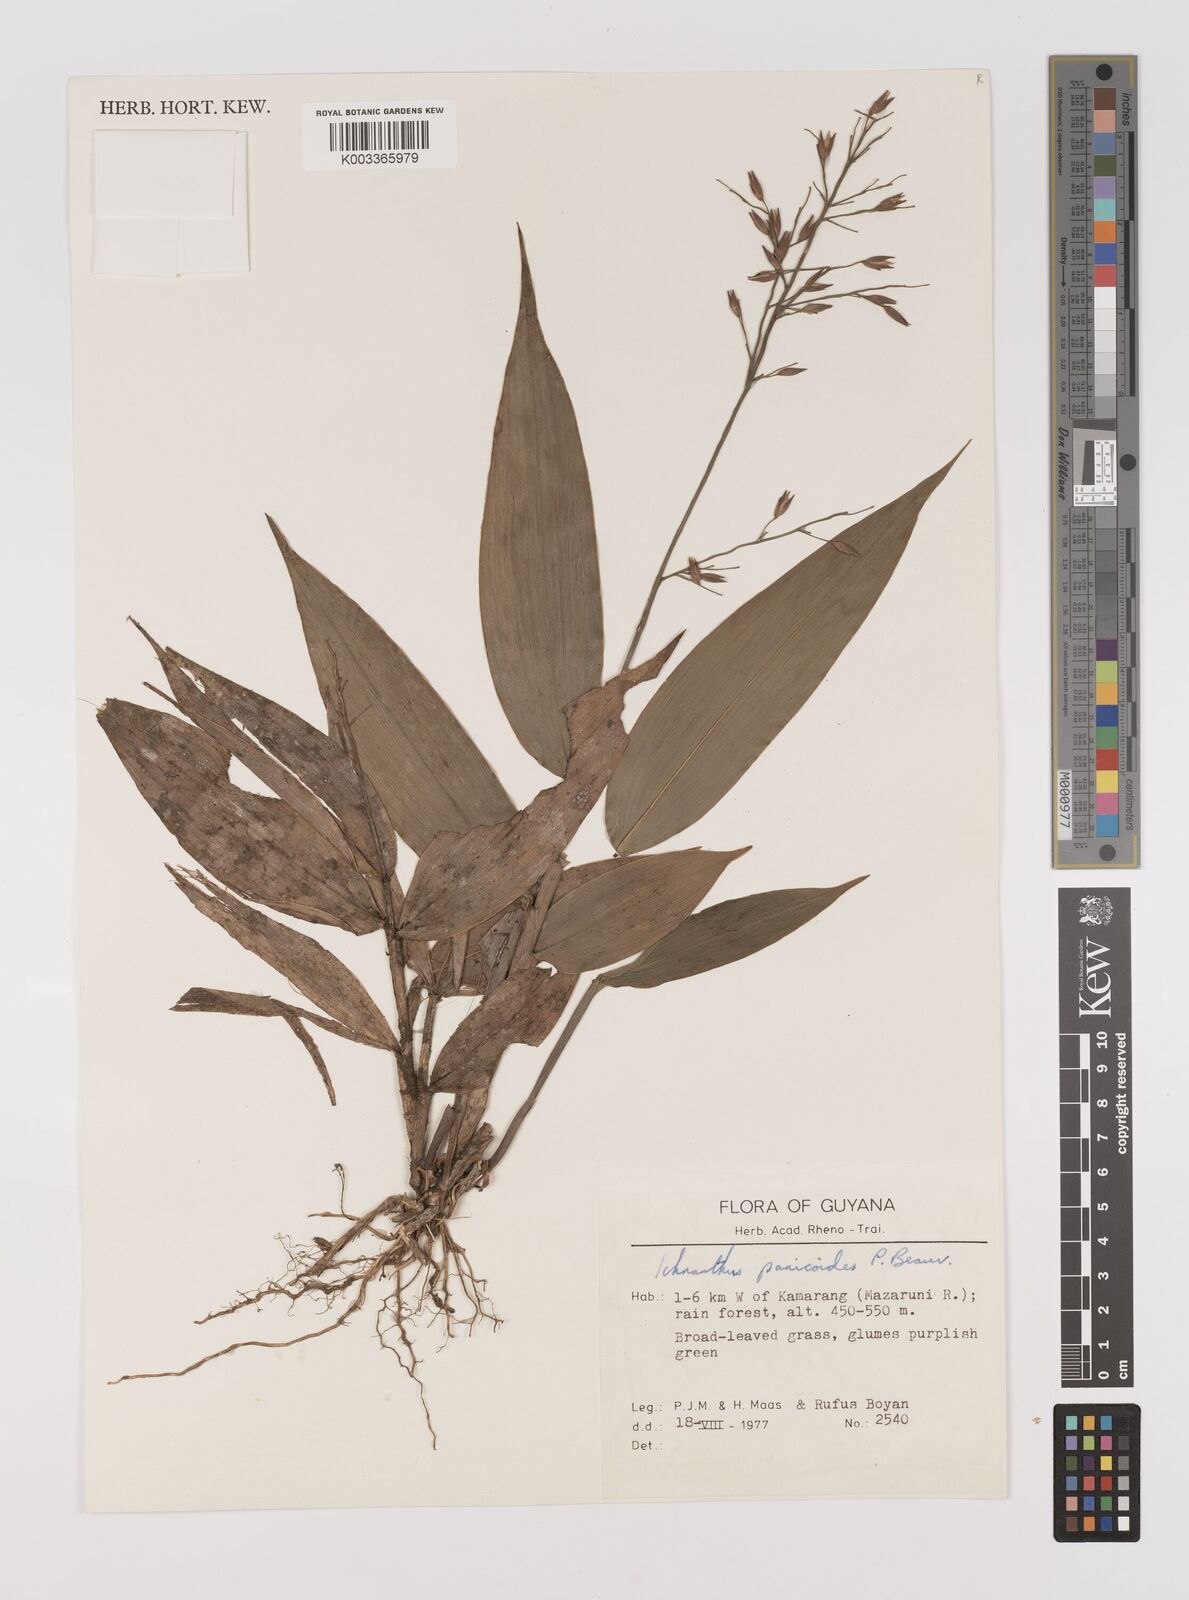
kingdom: Plantae
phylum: Tracheophyta
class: Liliopsida
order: Poales
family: Poaceae
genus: Ichnanthus
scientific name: Ichnanthus panicoides
